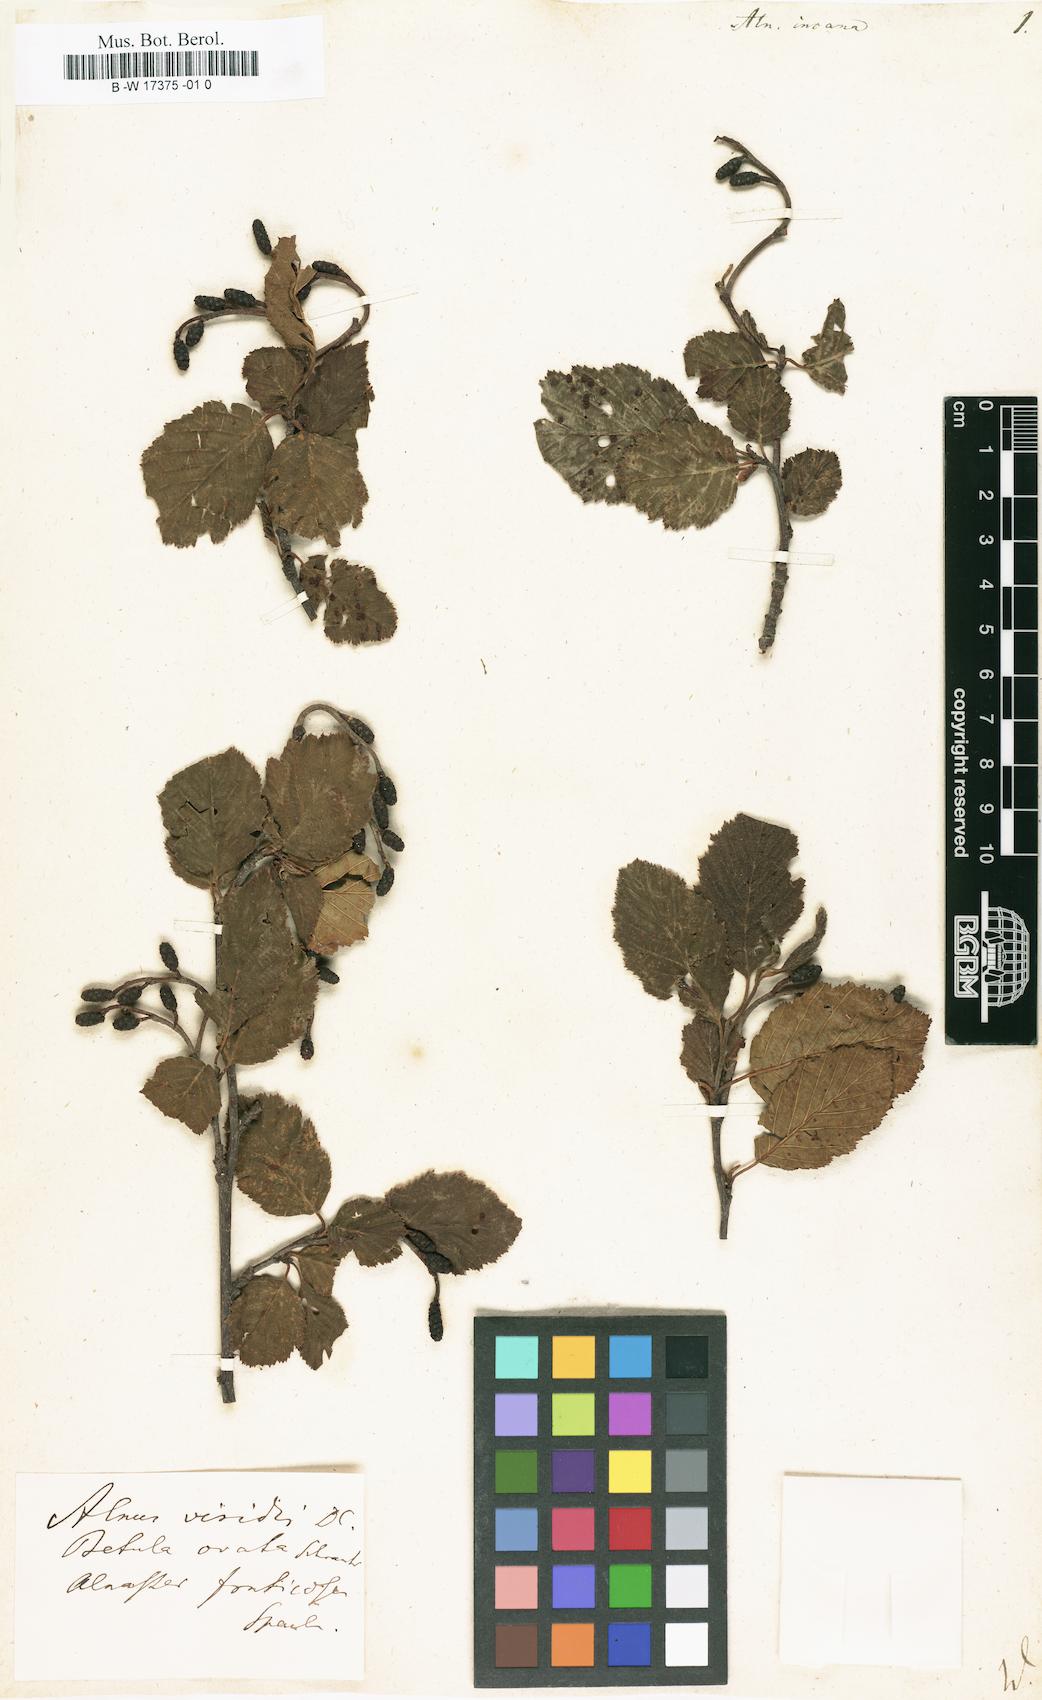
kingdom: Plantae
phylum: Tracheophyta
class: Magnoliopsida
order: Fagales
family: Betulaceae
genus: Alnus
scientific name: Alnus incana
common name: Grey alder
